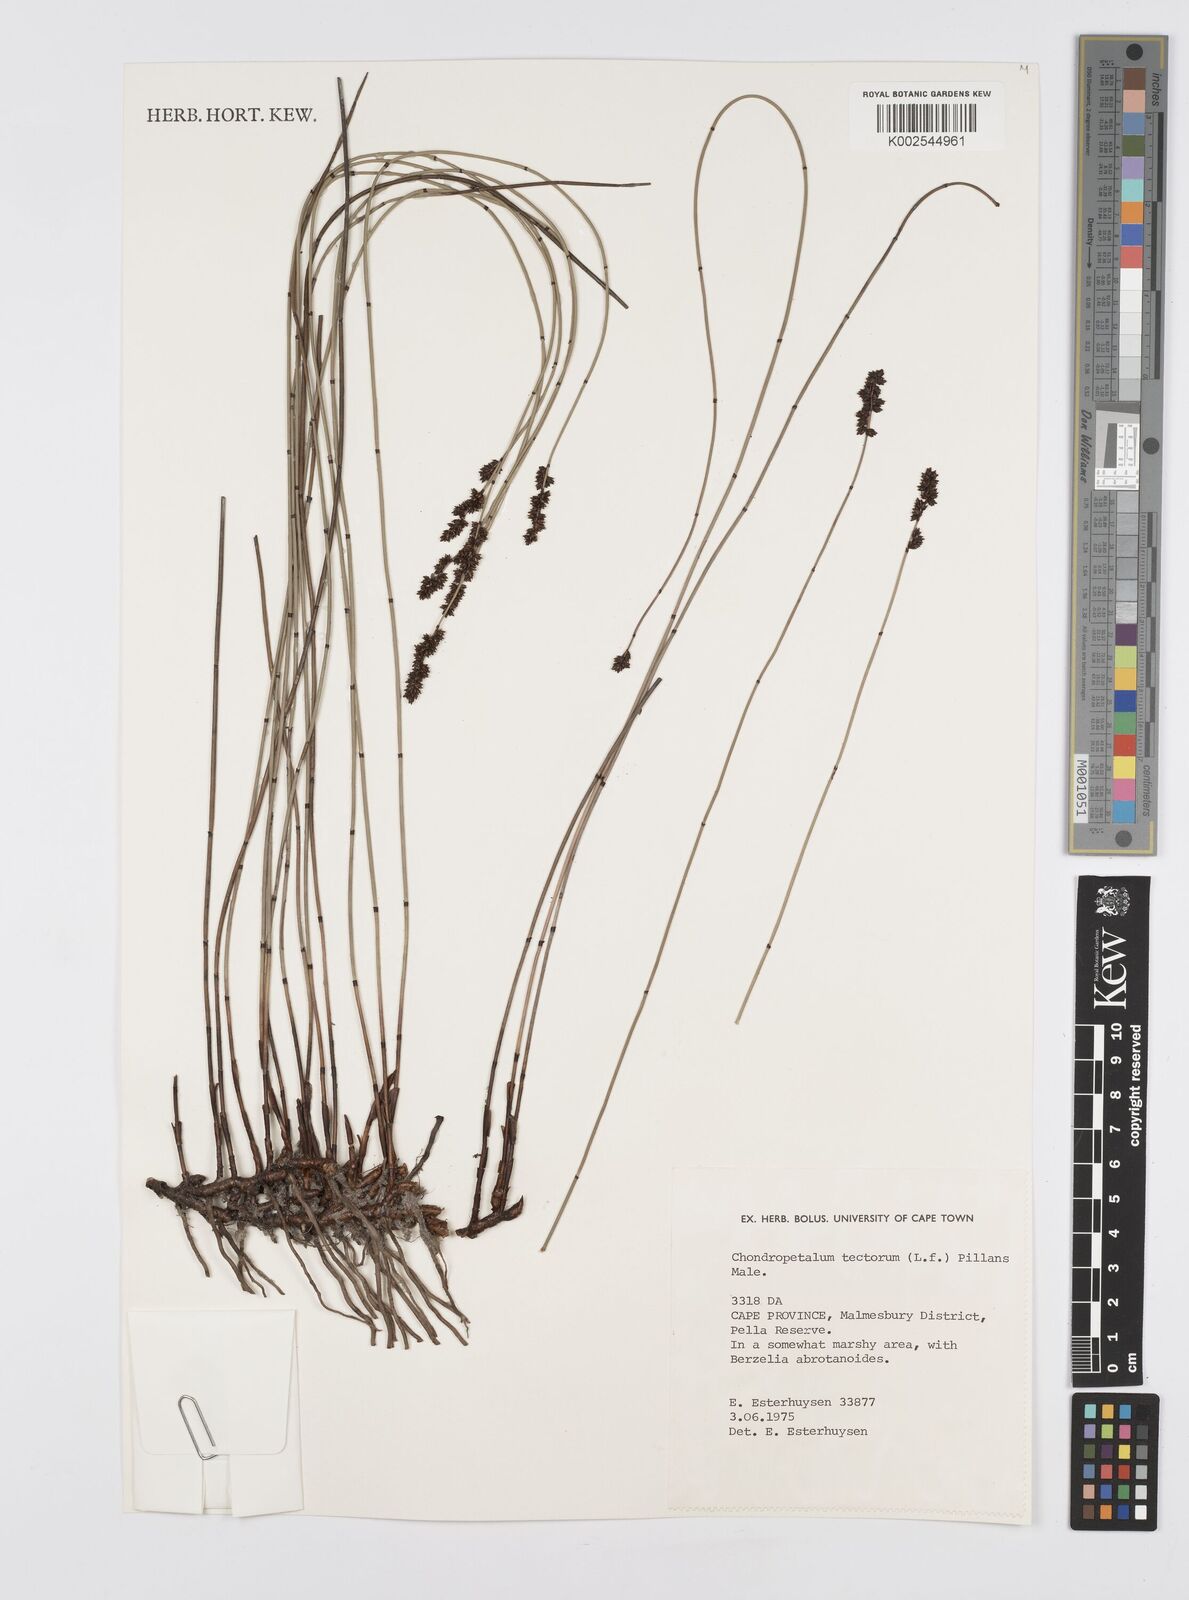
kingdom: Plantae
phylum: Tracheophyta
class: Liliopsida
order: Poales
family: Restionaceae
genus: Elegia
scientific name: Elegia tectorum
